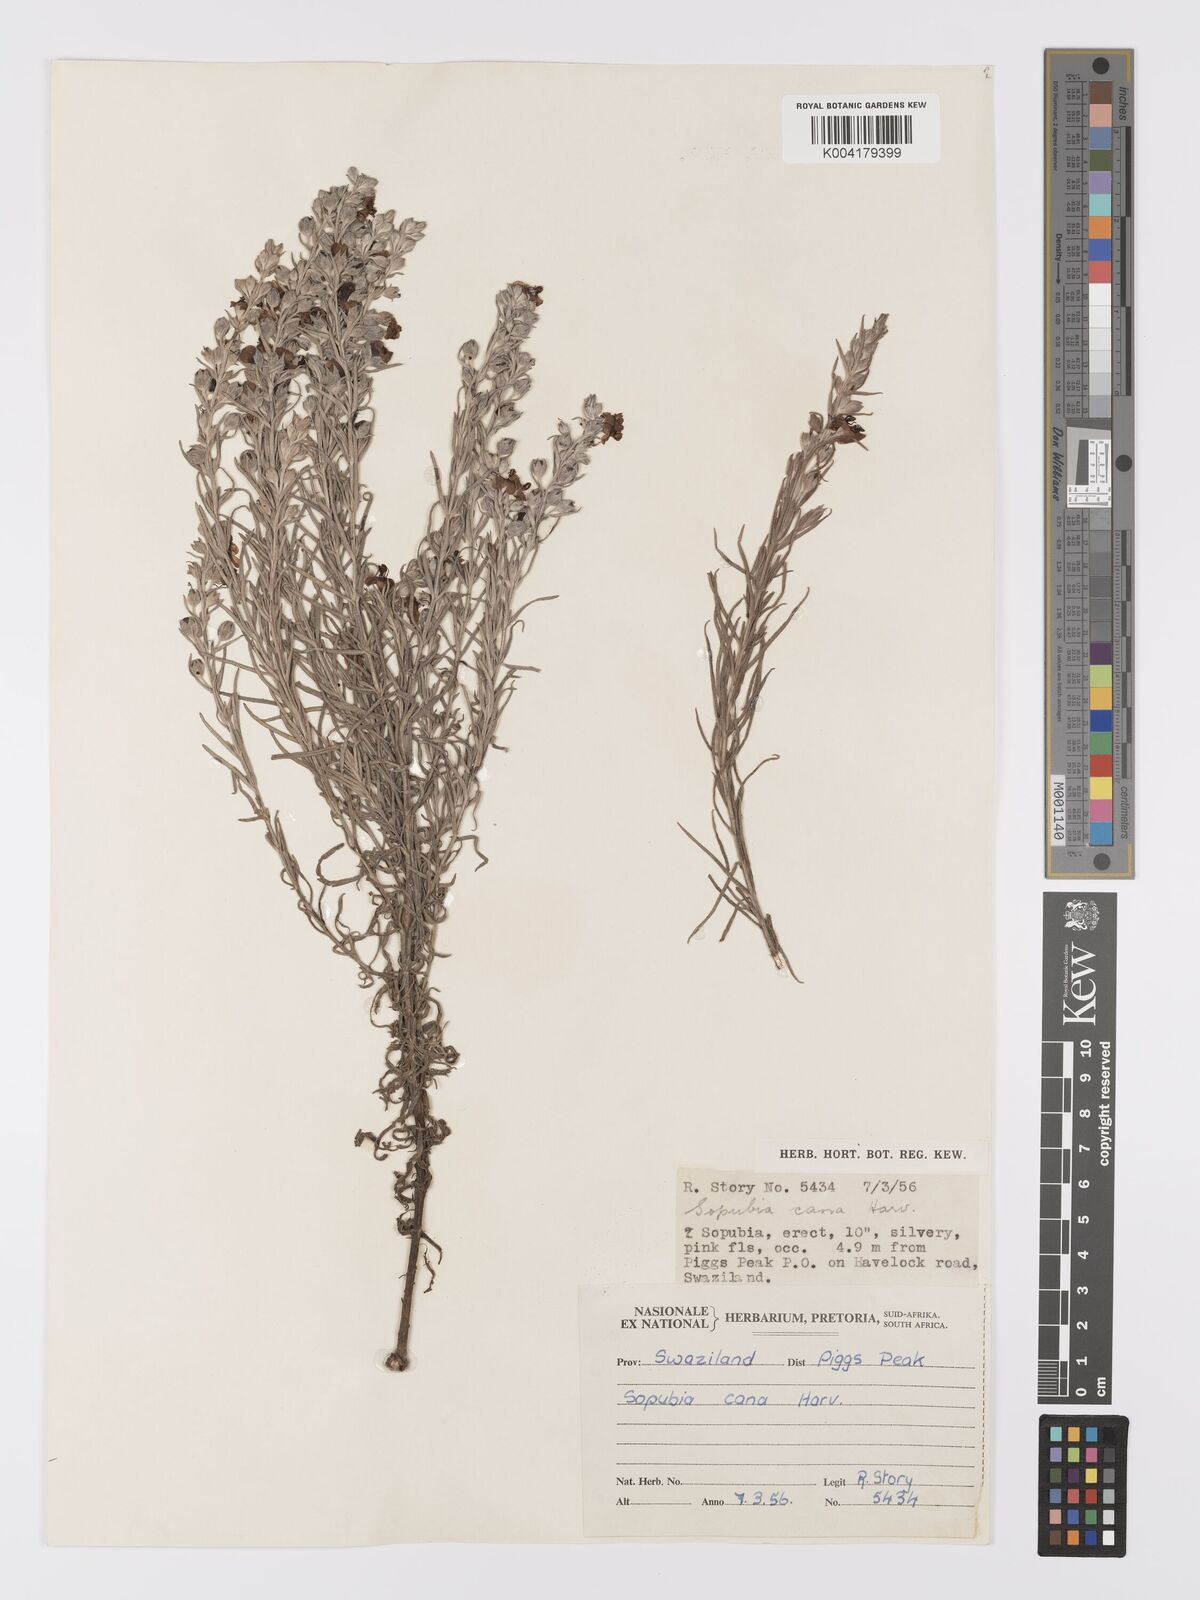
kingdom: Plantae
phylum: Tracheophyta
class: Magnoliopsida
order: Lamiales
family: Orobanchaceae
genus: Sopubia
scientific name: Sopubia cana
